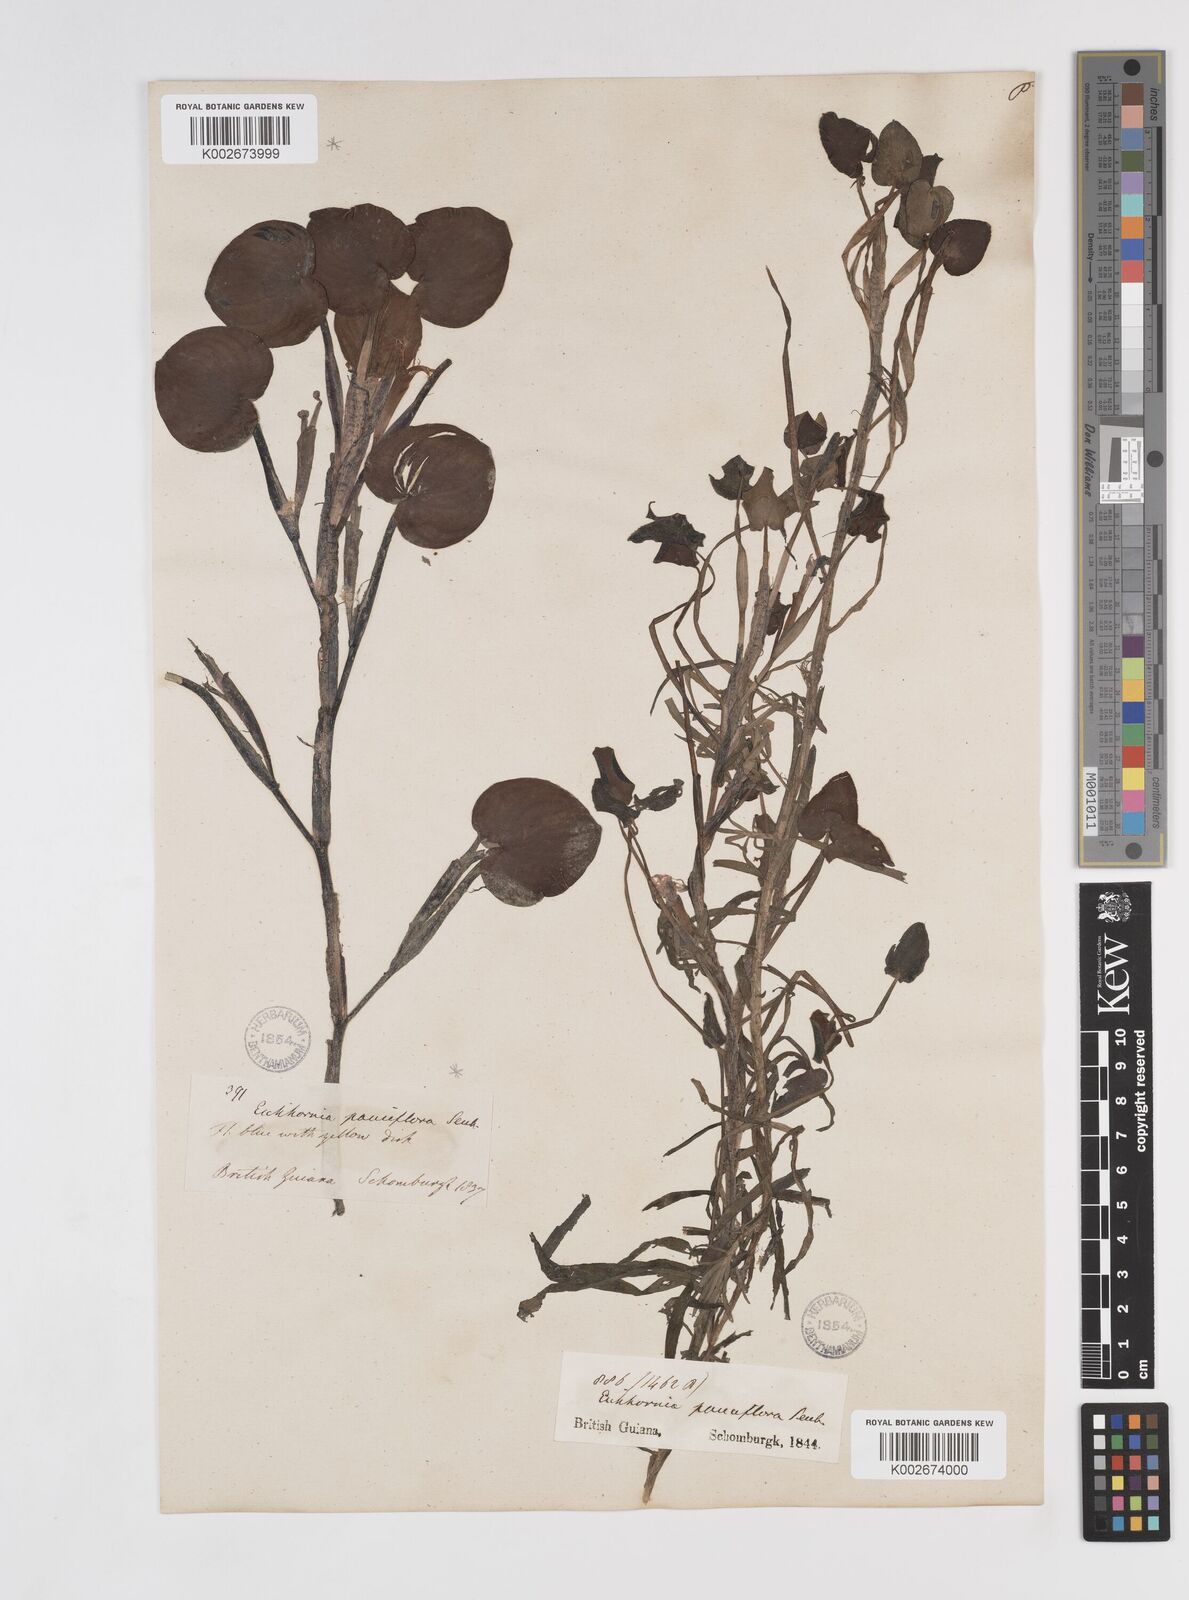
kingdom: Plantae
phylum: Tracheophyta
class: Liliopsida
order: Commelinales
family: Pontederiaceae
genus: Pontederia
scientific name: Pontederia diversifolia
